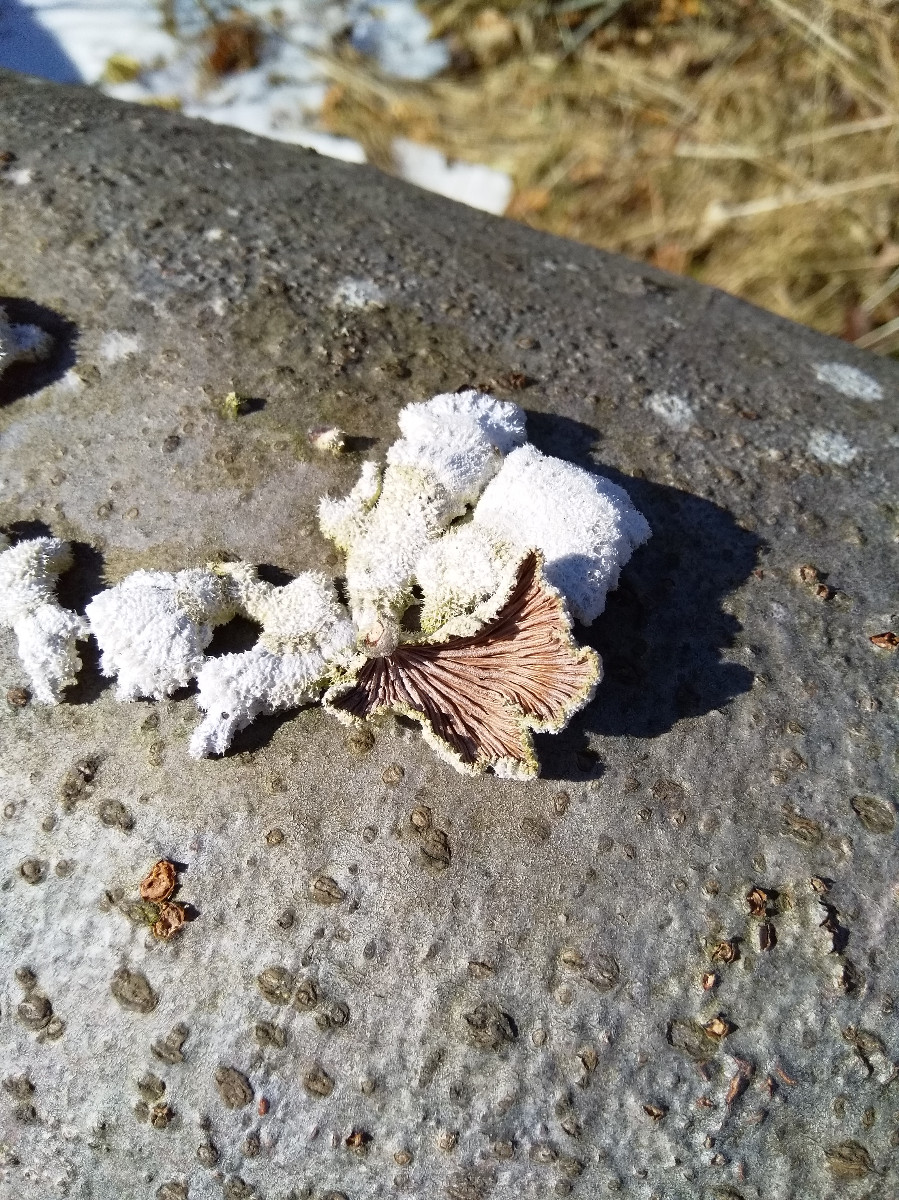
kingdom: Fungi
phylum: Basidiomycota
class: Agaricomycetes
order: Agaricales
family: Schizophyllaceae
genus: Schizophyllum
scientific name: Schizophyllum commune
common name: kløvblad
